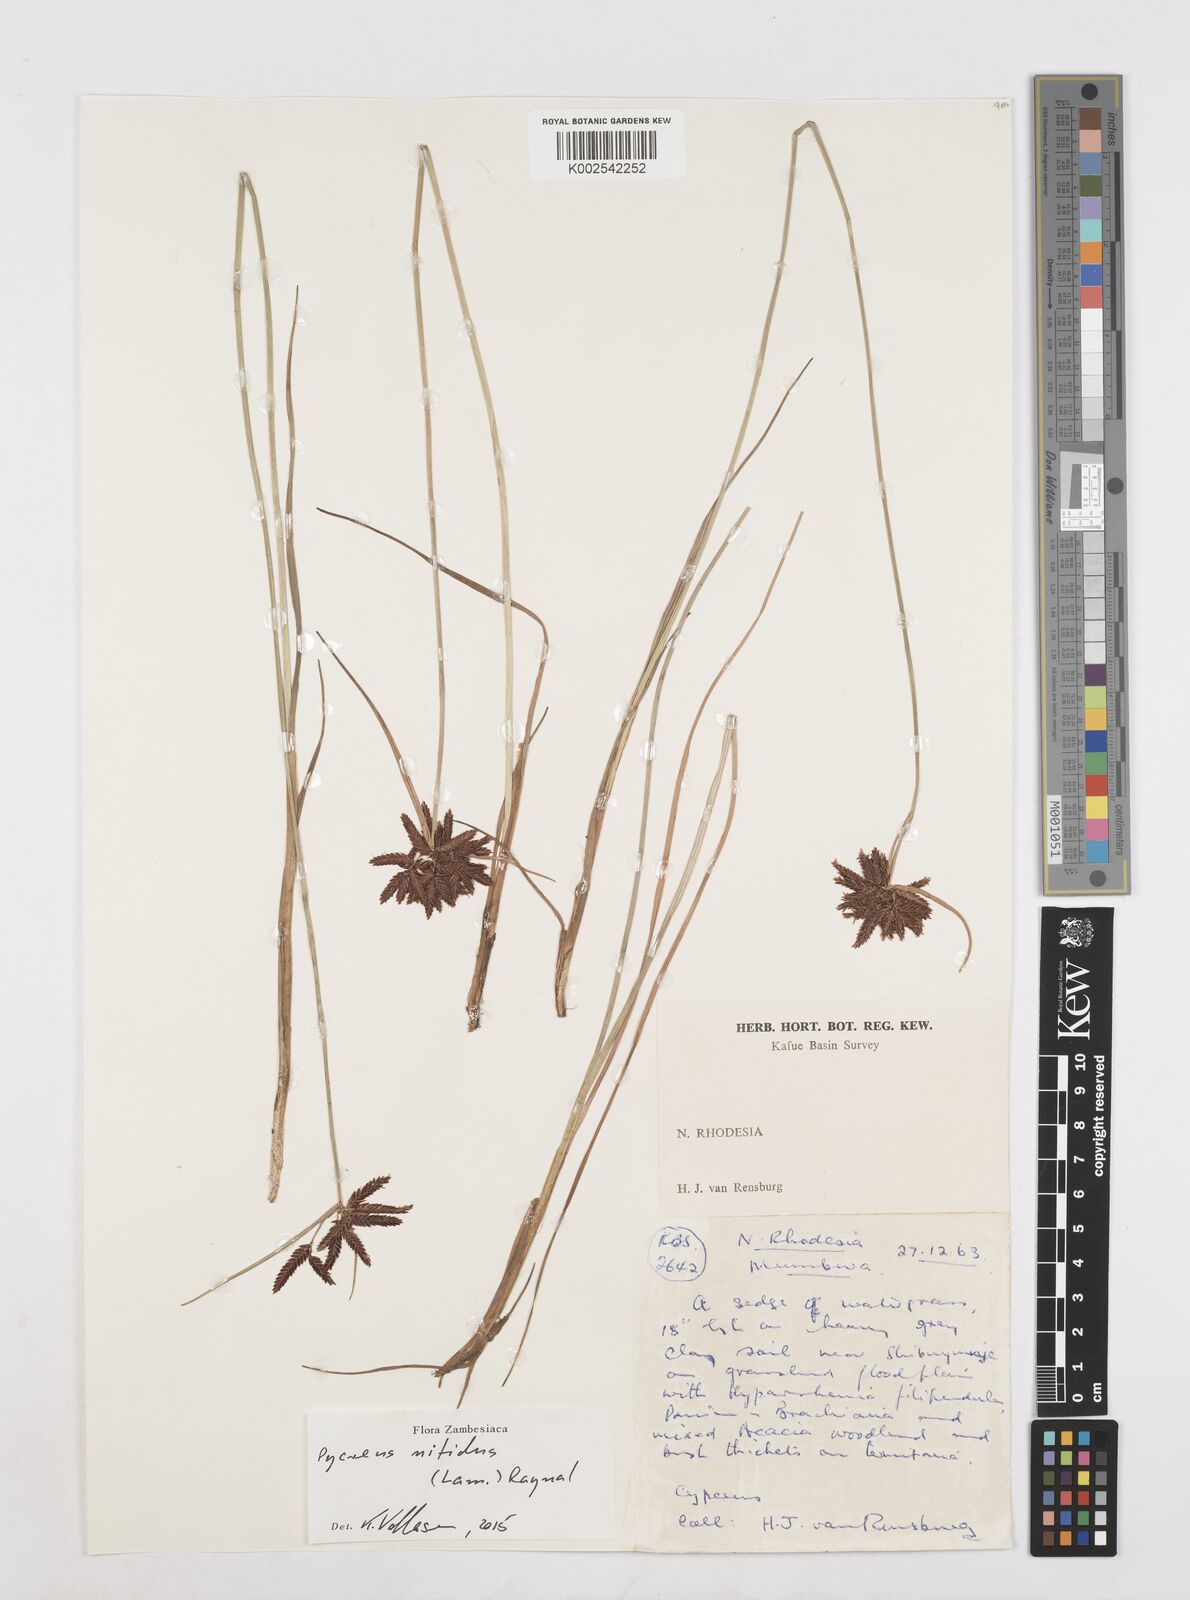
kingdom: Plantae
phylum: Tracheophyta
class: Liliopsida
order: Poales
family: Cyperaceae
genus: Cyperus
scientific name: Cyperus nitidus
